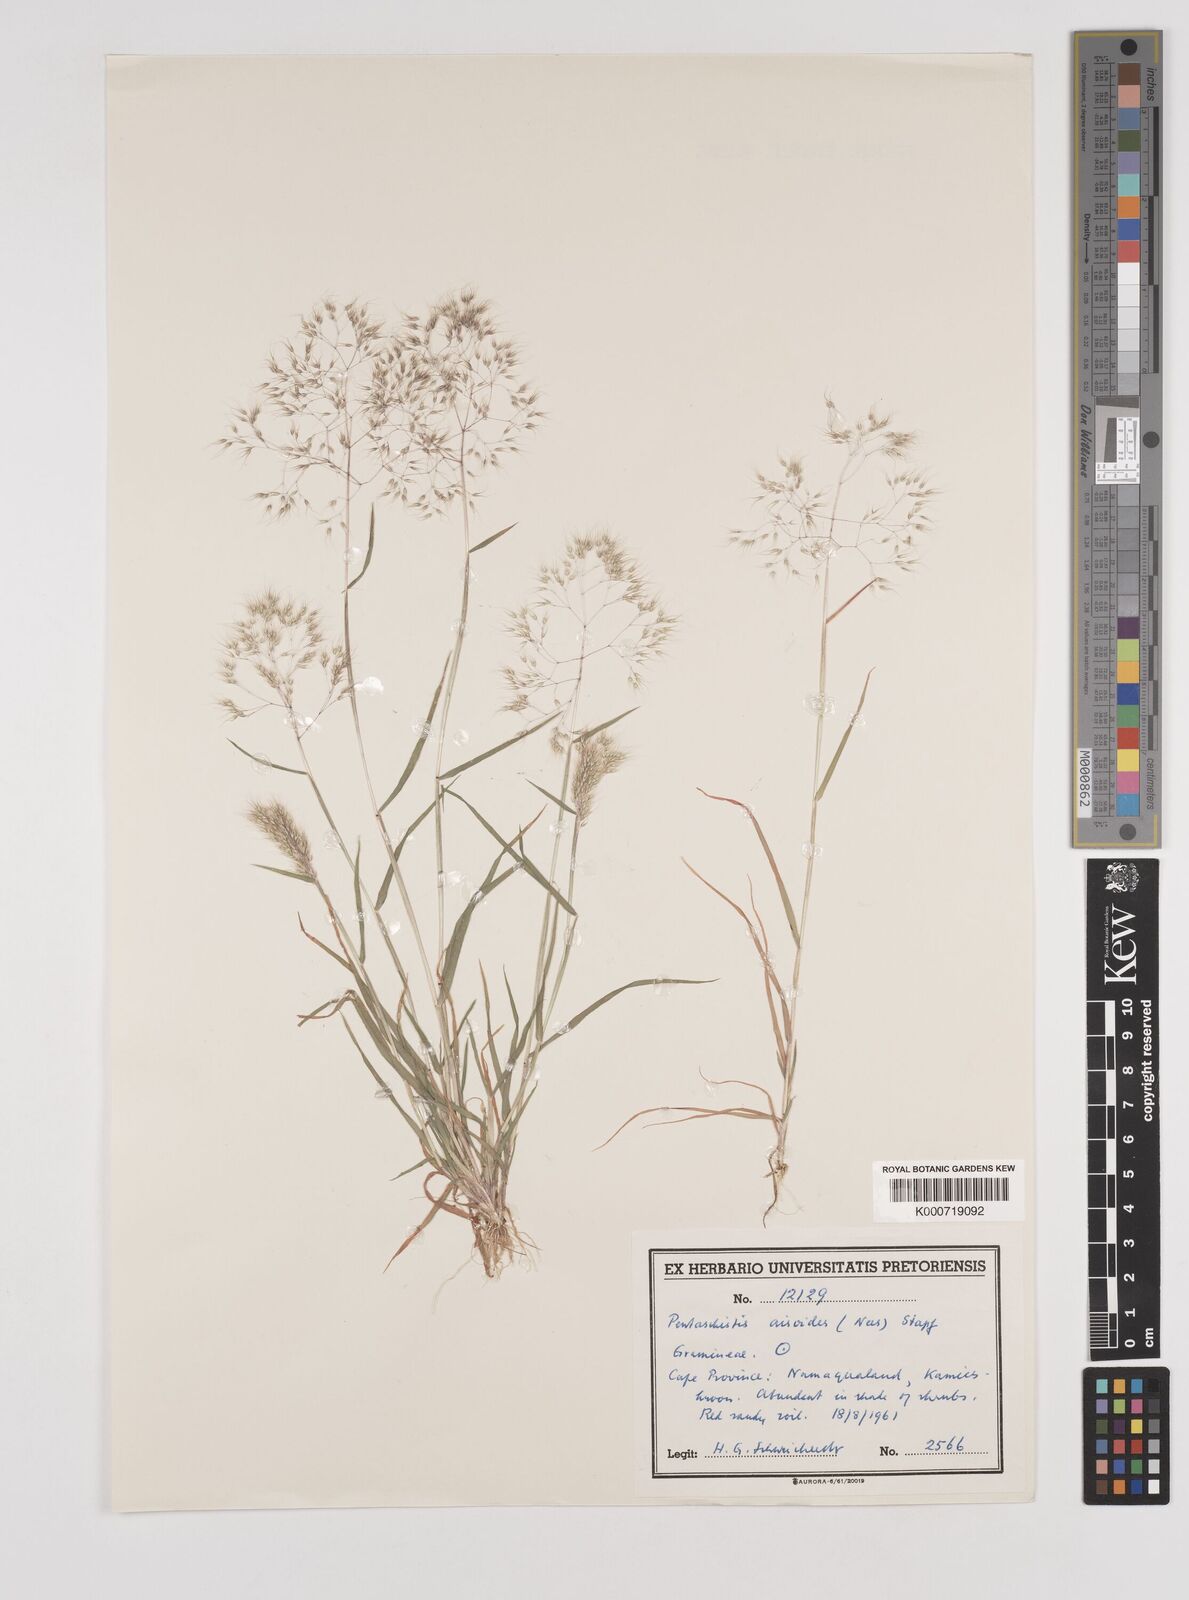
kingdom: Plantae
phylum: Tracheophyta
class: Liliopsida
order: Poales
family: Poaceae
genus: Pentameris
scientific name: Pentameris airoides
